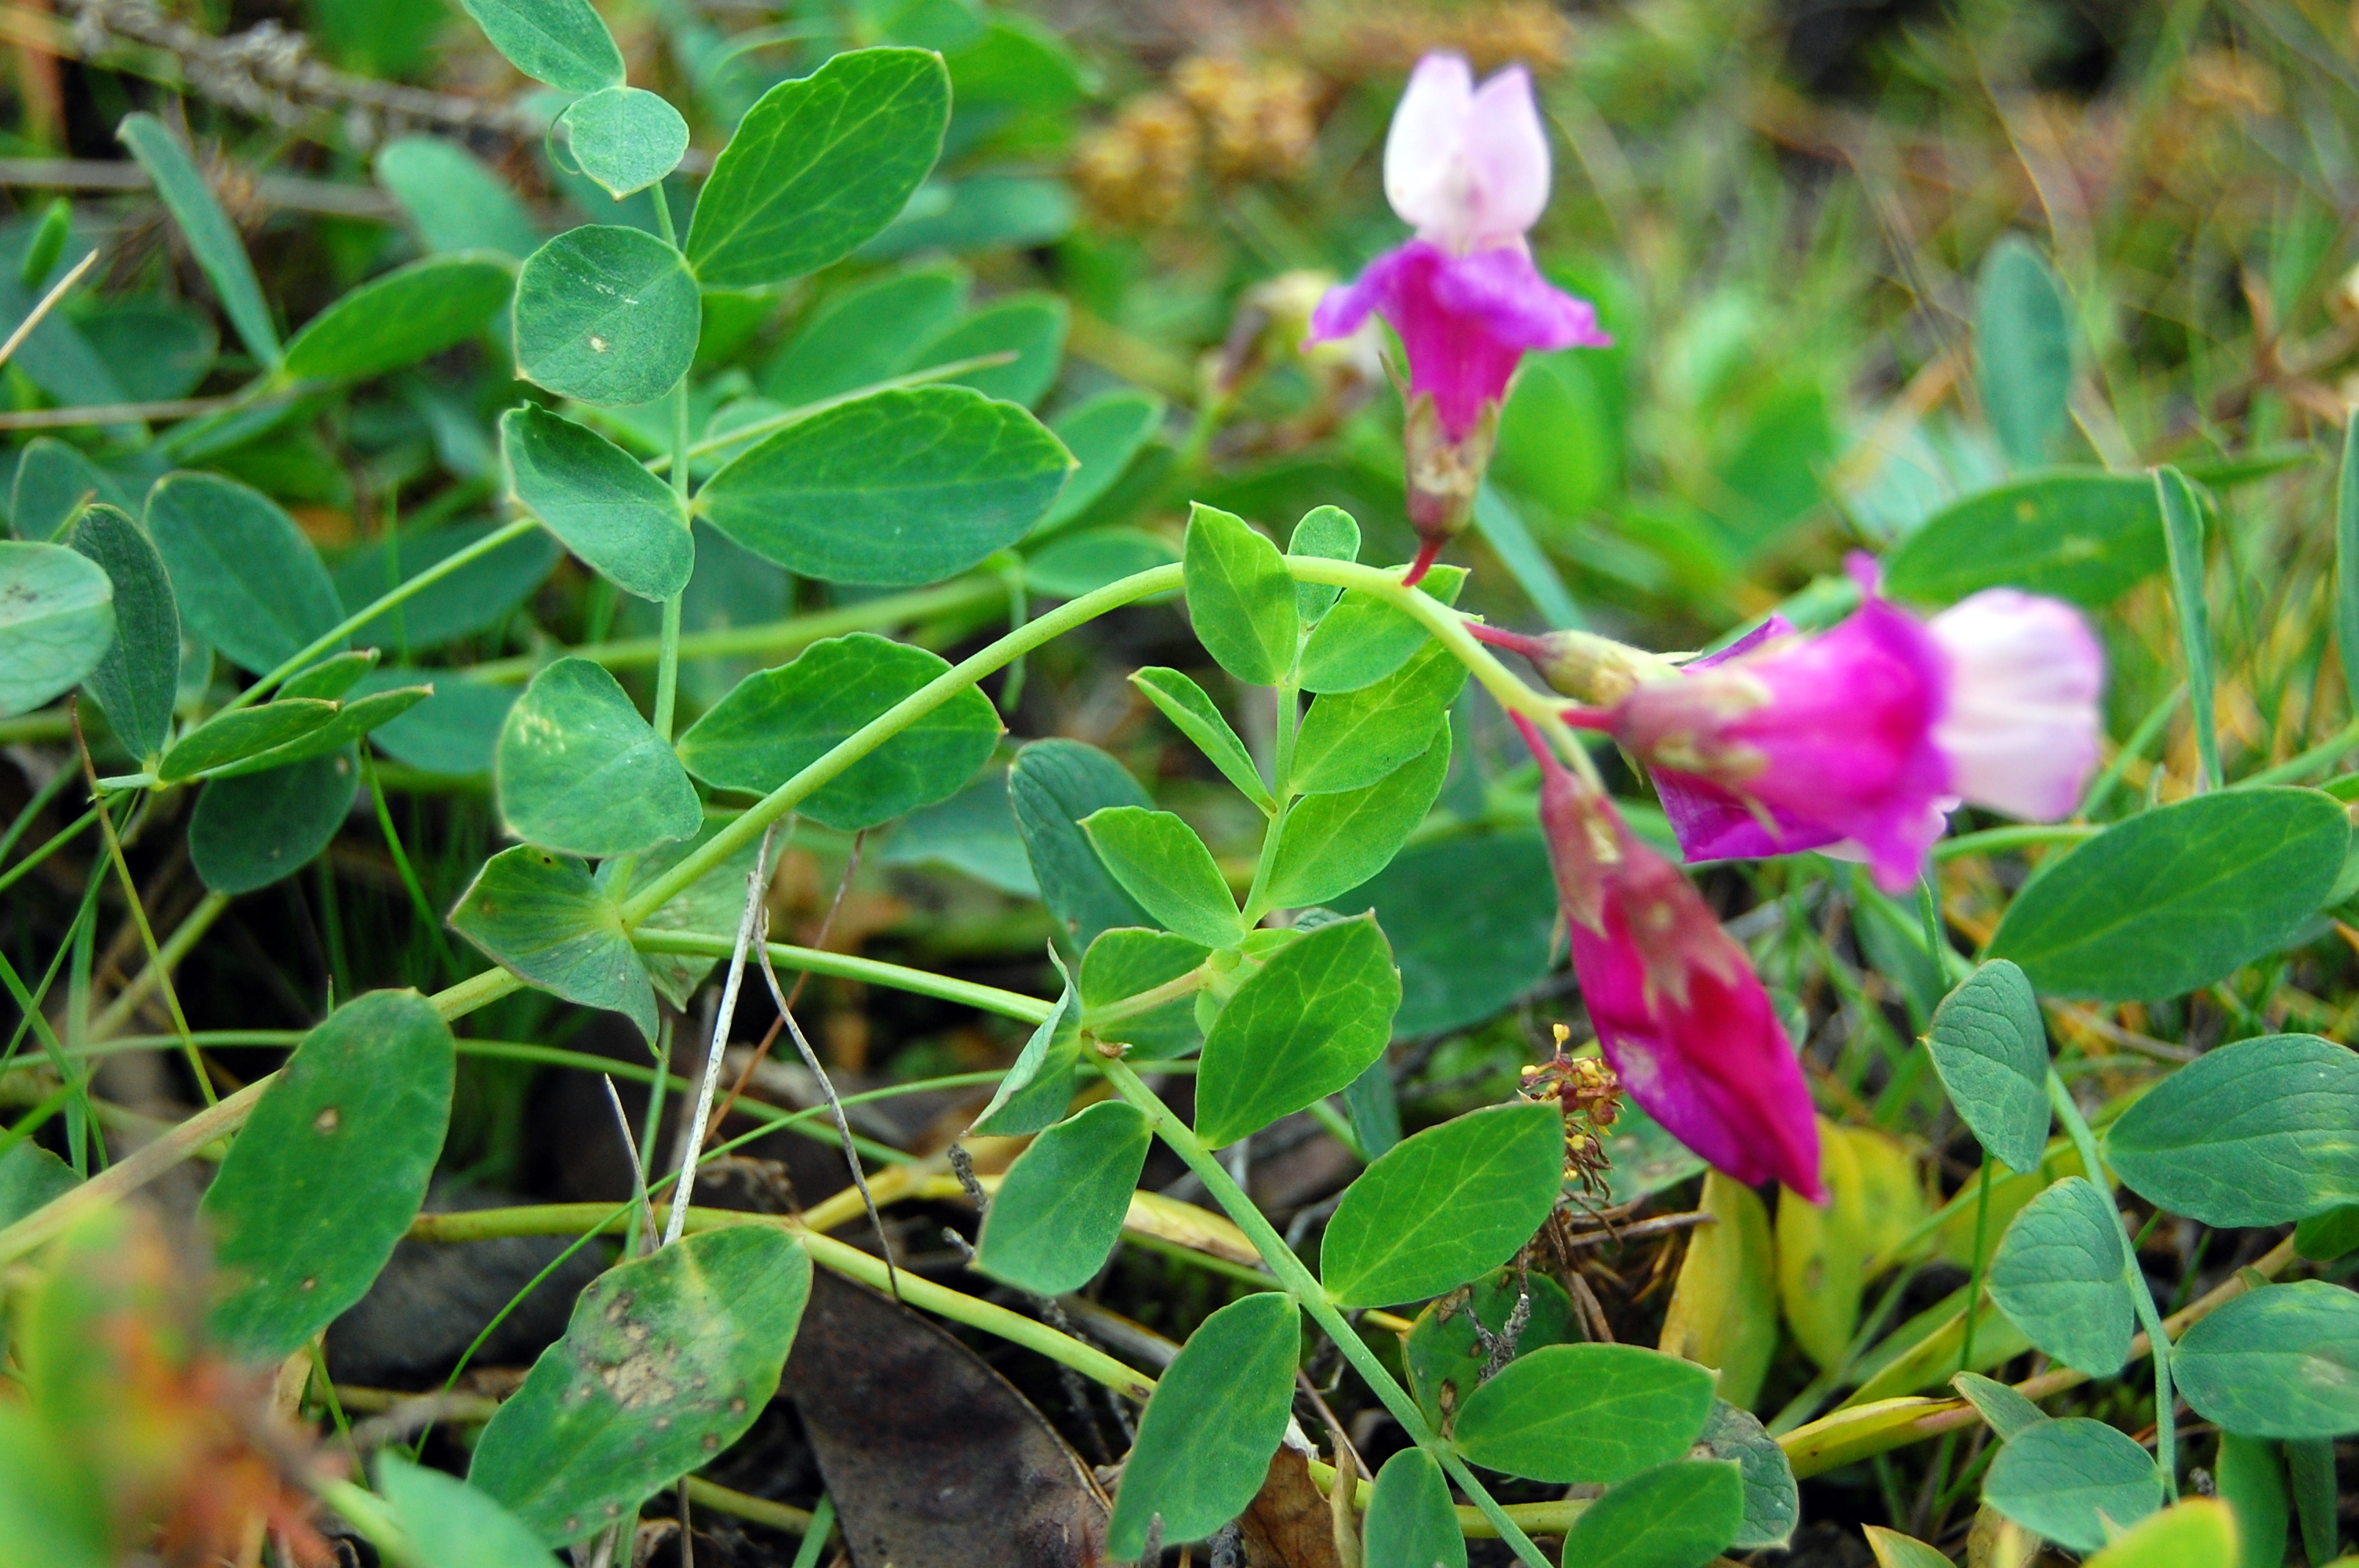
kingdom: Plantae
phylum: Tracheophyta
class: Magnoliopsida
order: Fabales
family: Fabaceae
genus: Lathyrus
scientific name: Lathyrus japonicus
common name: Sea pea
